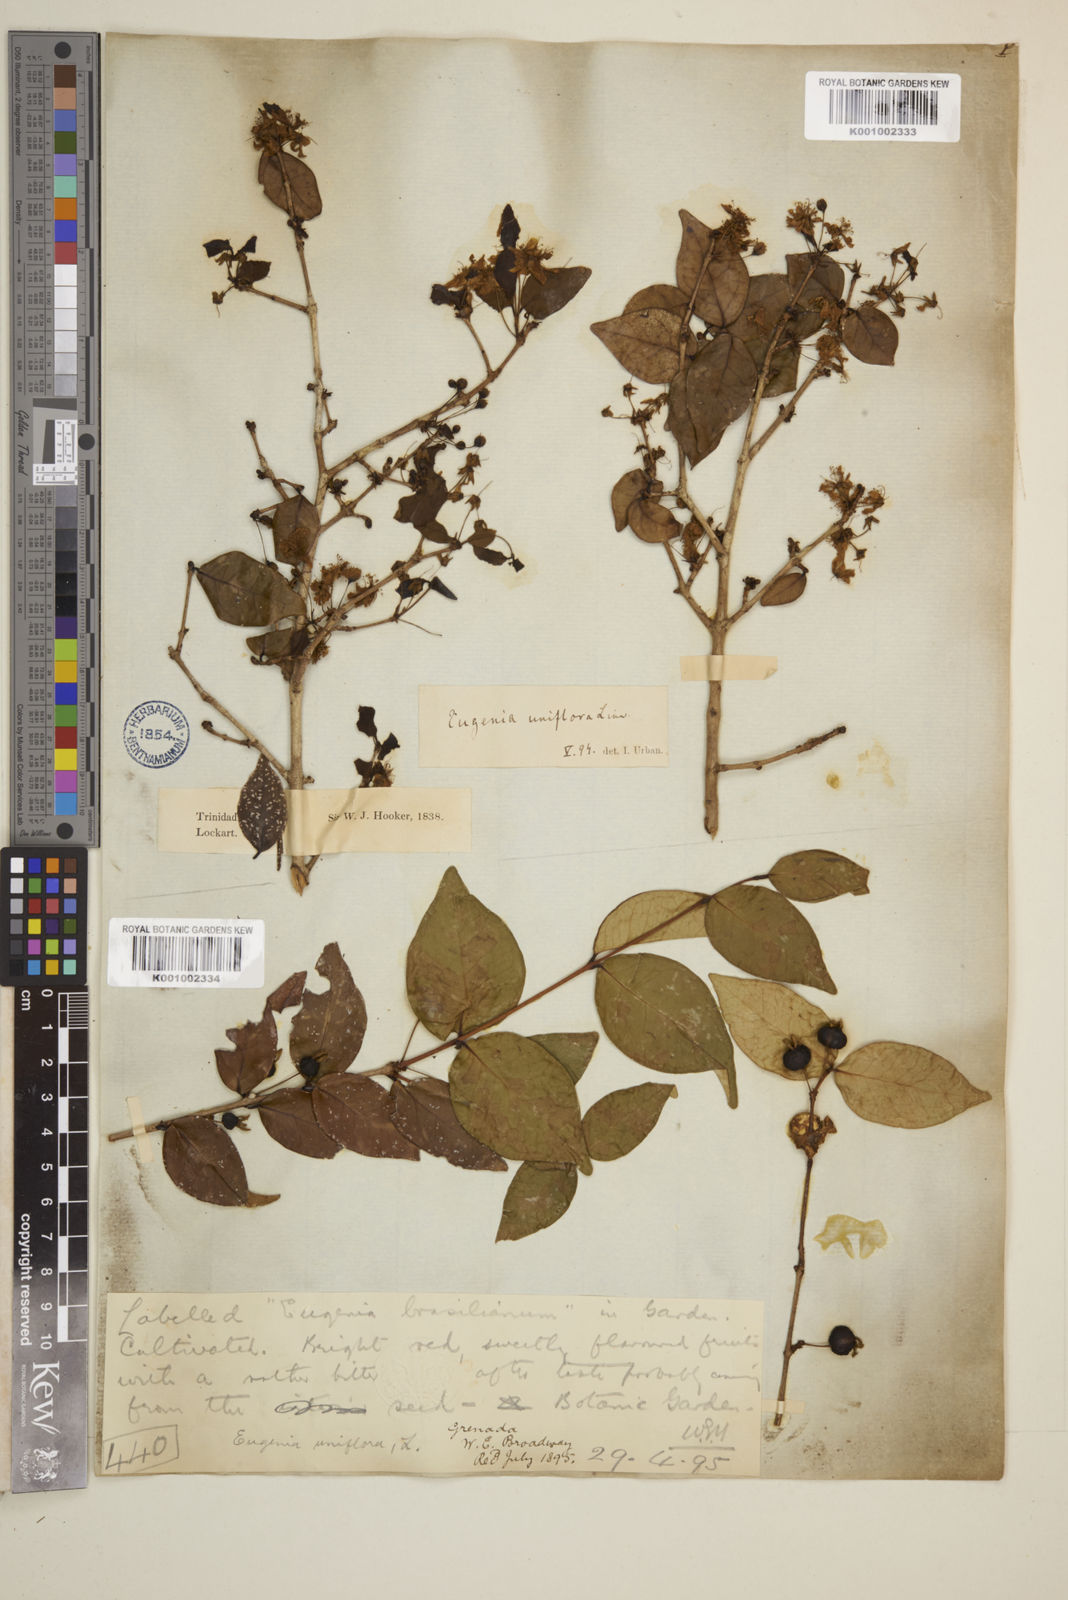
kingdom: Plantae
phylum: Tracheophyta
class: Magnoliopsida
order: Myrtales
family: Myrtaceae
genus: Eugenia
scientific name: Eugenia uniflora
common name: Surinam cherry
